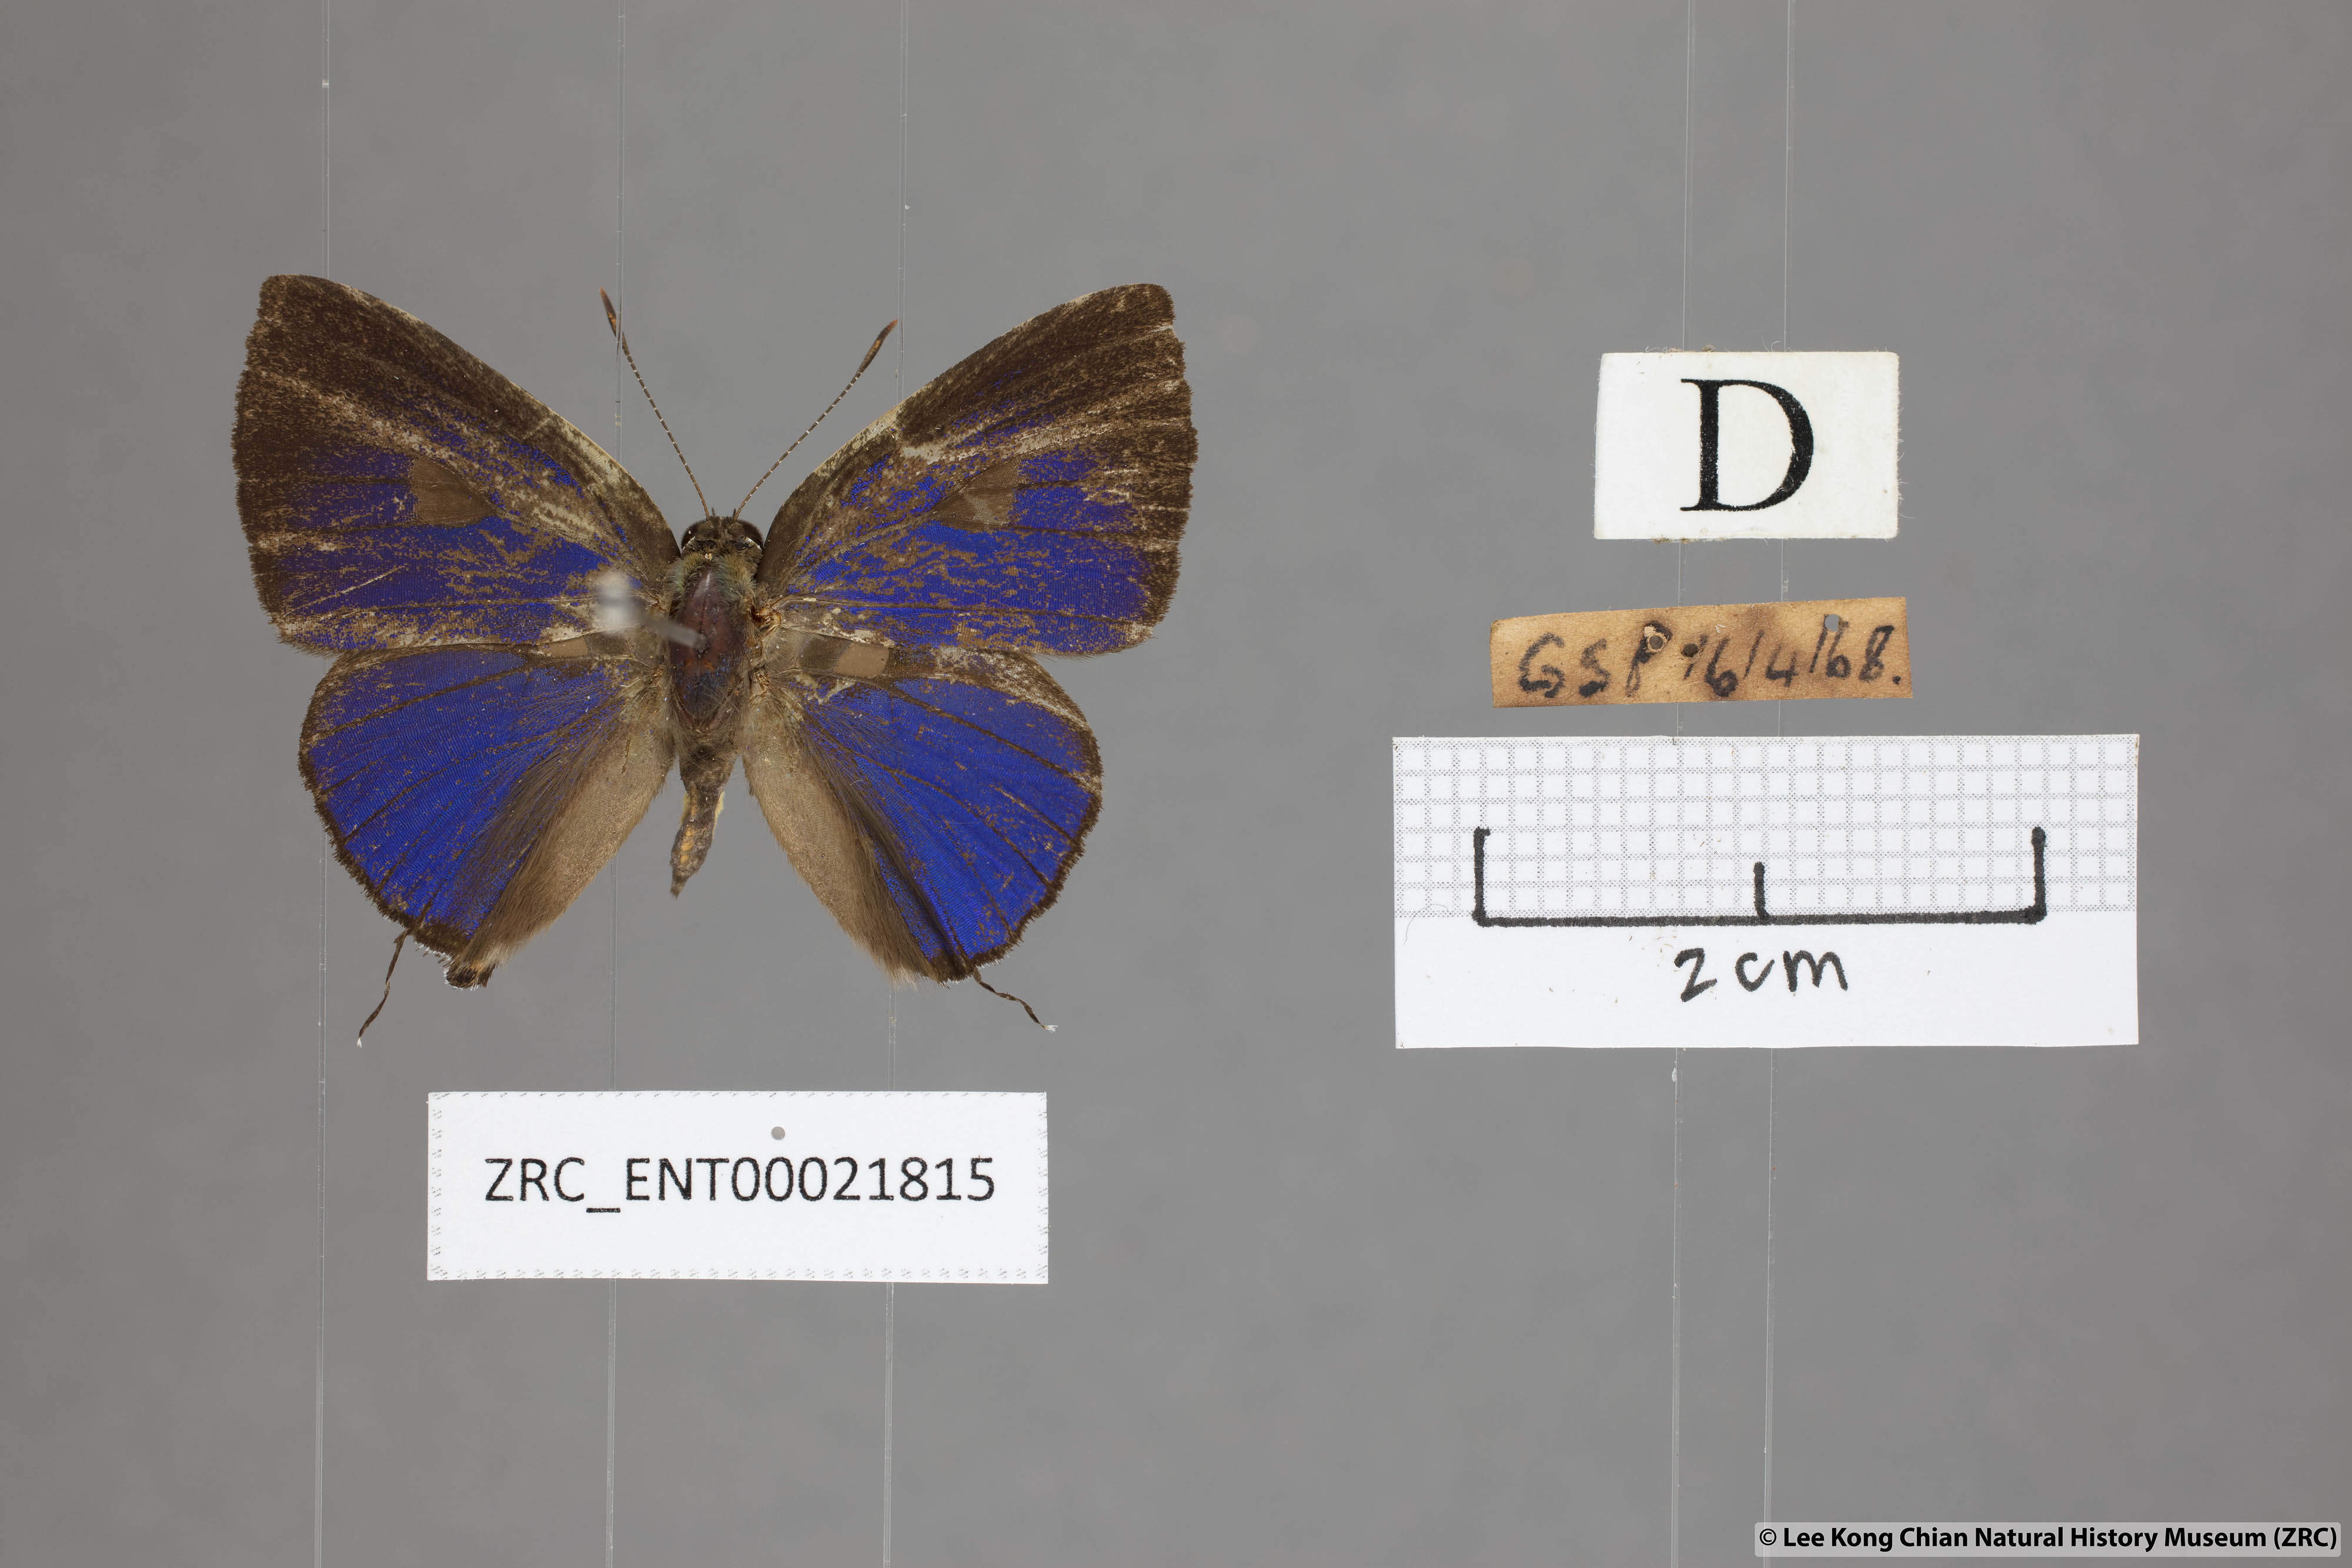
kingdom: Animalia
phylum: Arthropoda
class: Insecta
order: Lepidoptera
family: Lycaenidae
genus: Rapala
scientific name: Rapala rhoecus
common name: Brilliant flash
